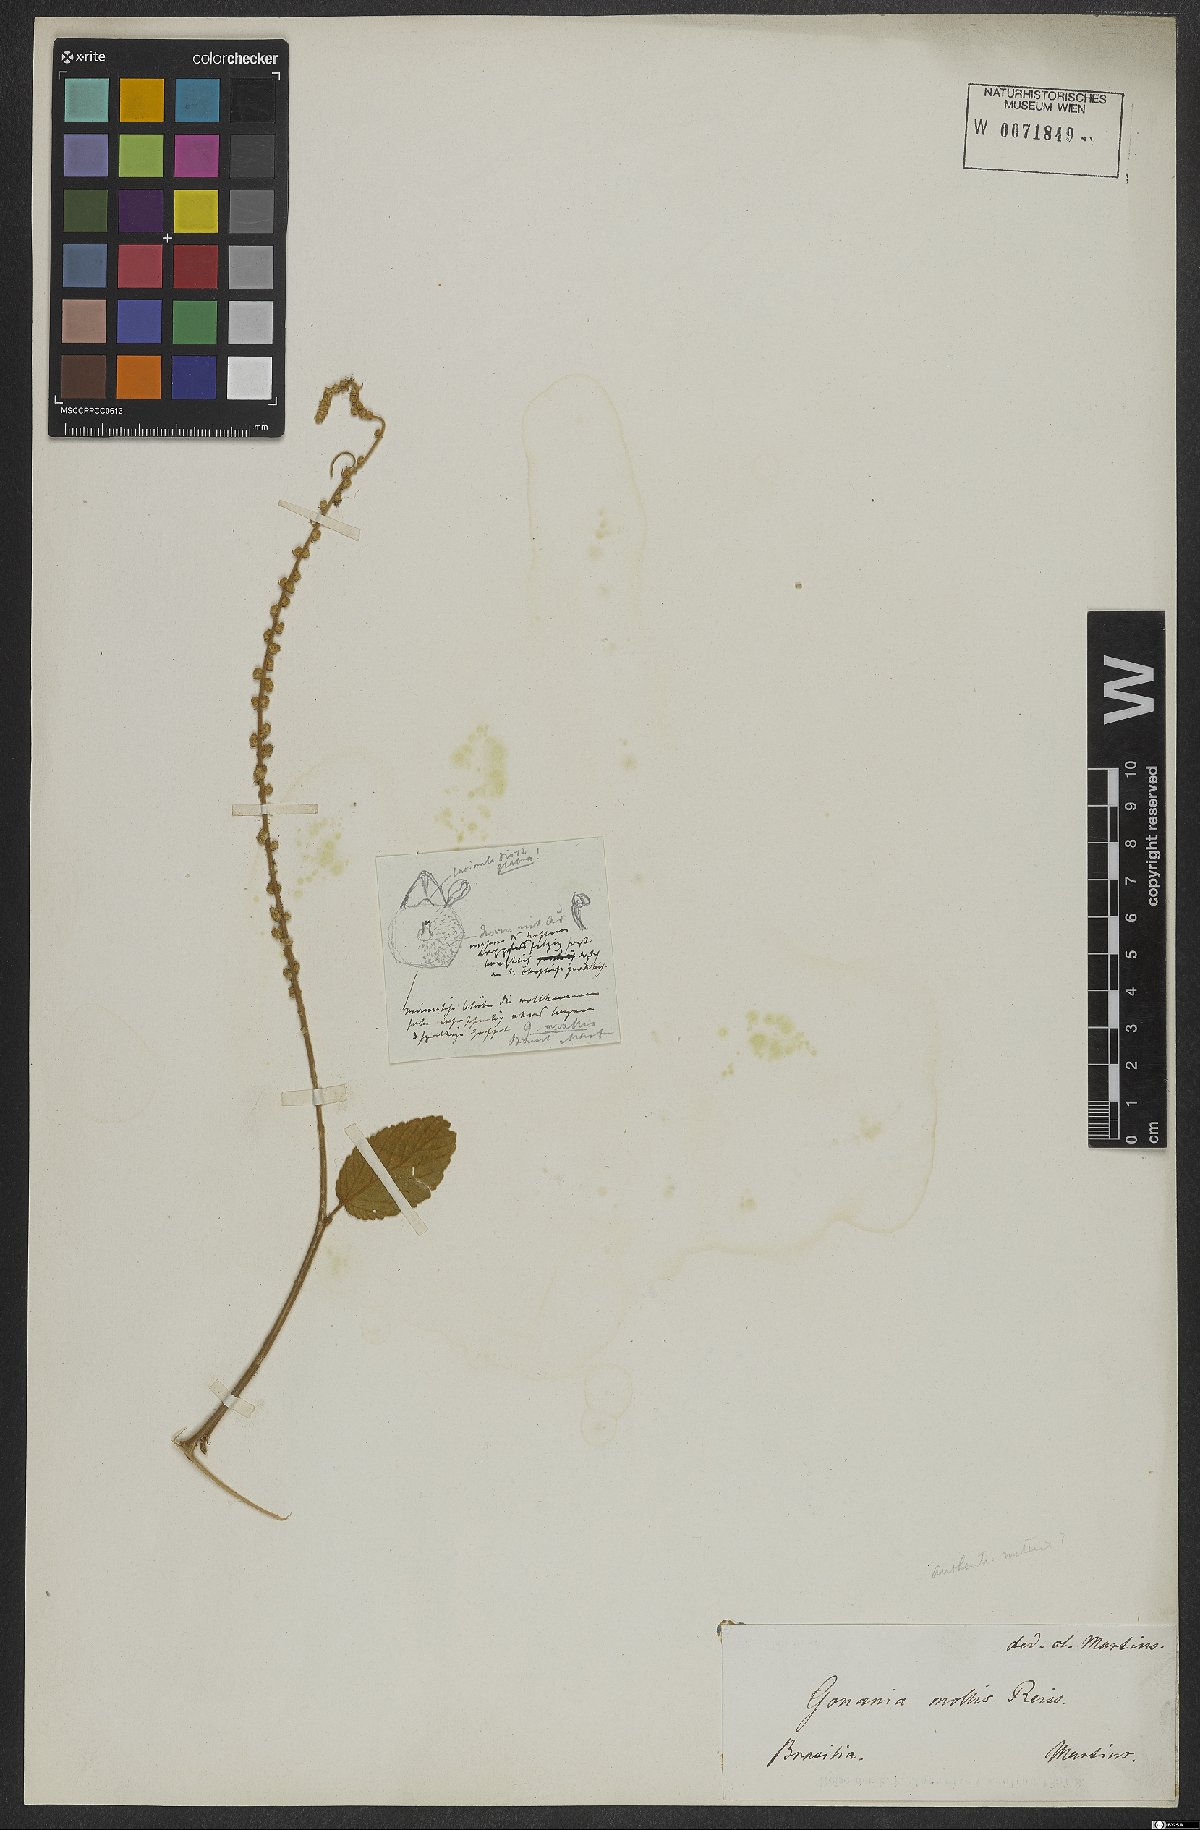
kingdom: Plantae
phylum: Tracheophyta
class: Magnoliopsida
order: Rosales
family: Rhamnaceae
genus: Gouania
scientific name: Gouania latifolia
